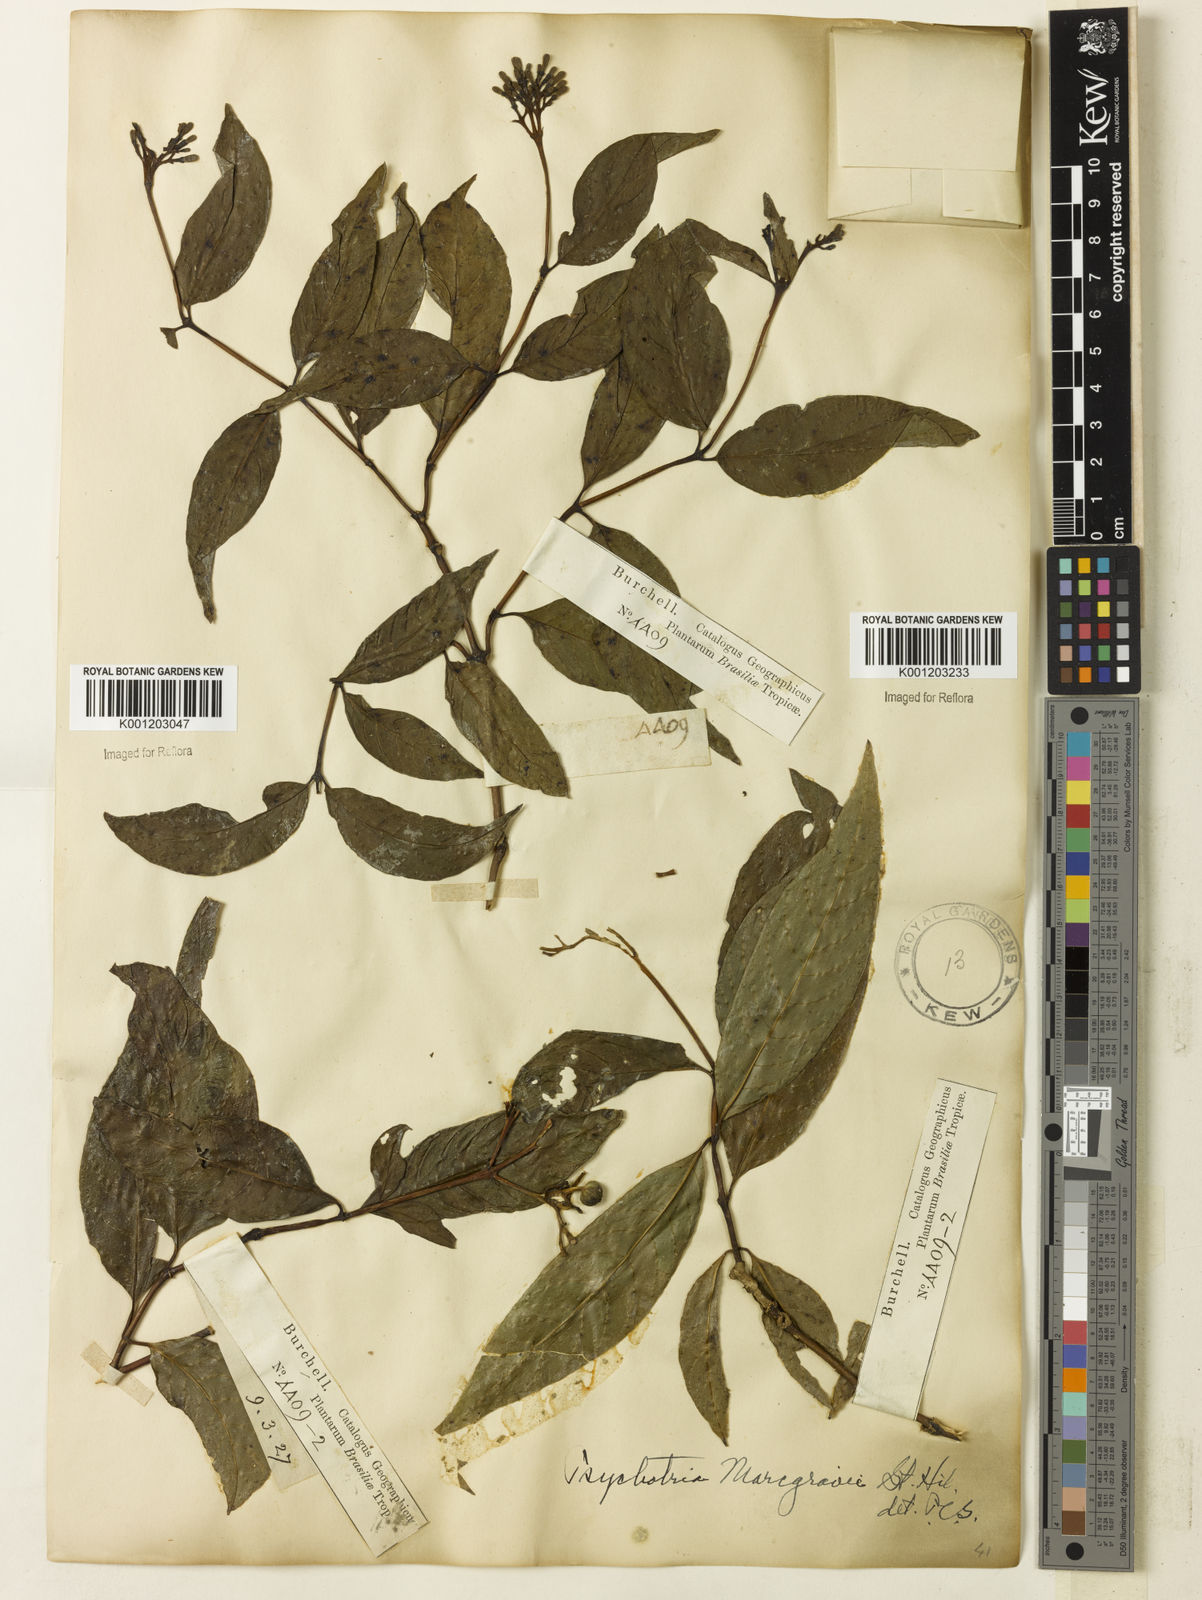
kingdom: Plantae
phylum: Tracheophyta
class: Magnoliopsida
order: Gentianales
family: Rubiaceae
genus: Palicourea
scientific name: Palicourea marcgravii
